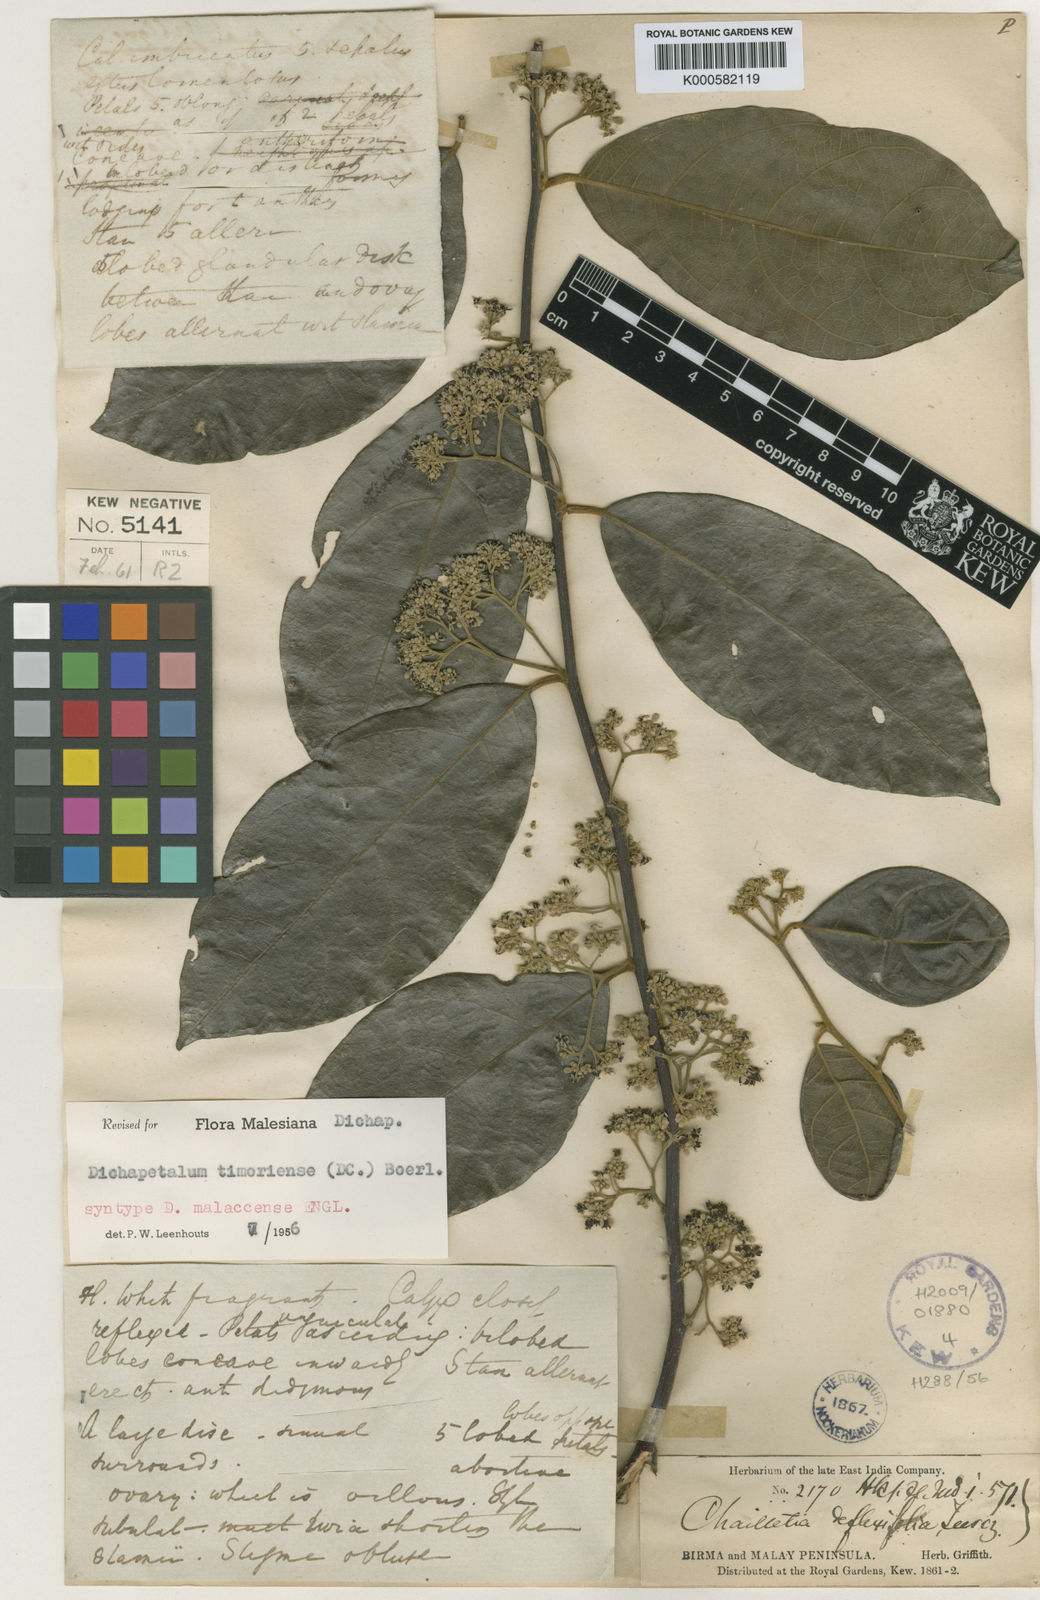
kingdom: Plantae
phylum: Tracheophyta
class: Magnoliopsida
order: Malpighiales
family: Dichapetalaceae
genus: Dichapetalum
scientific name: Dichapetalum timoriense
